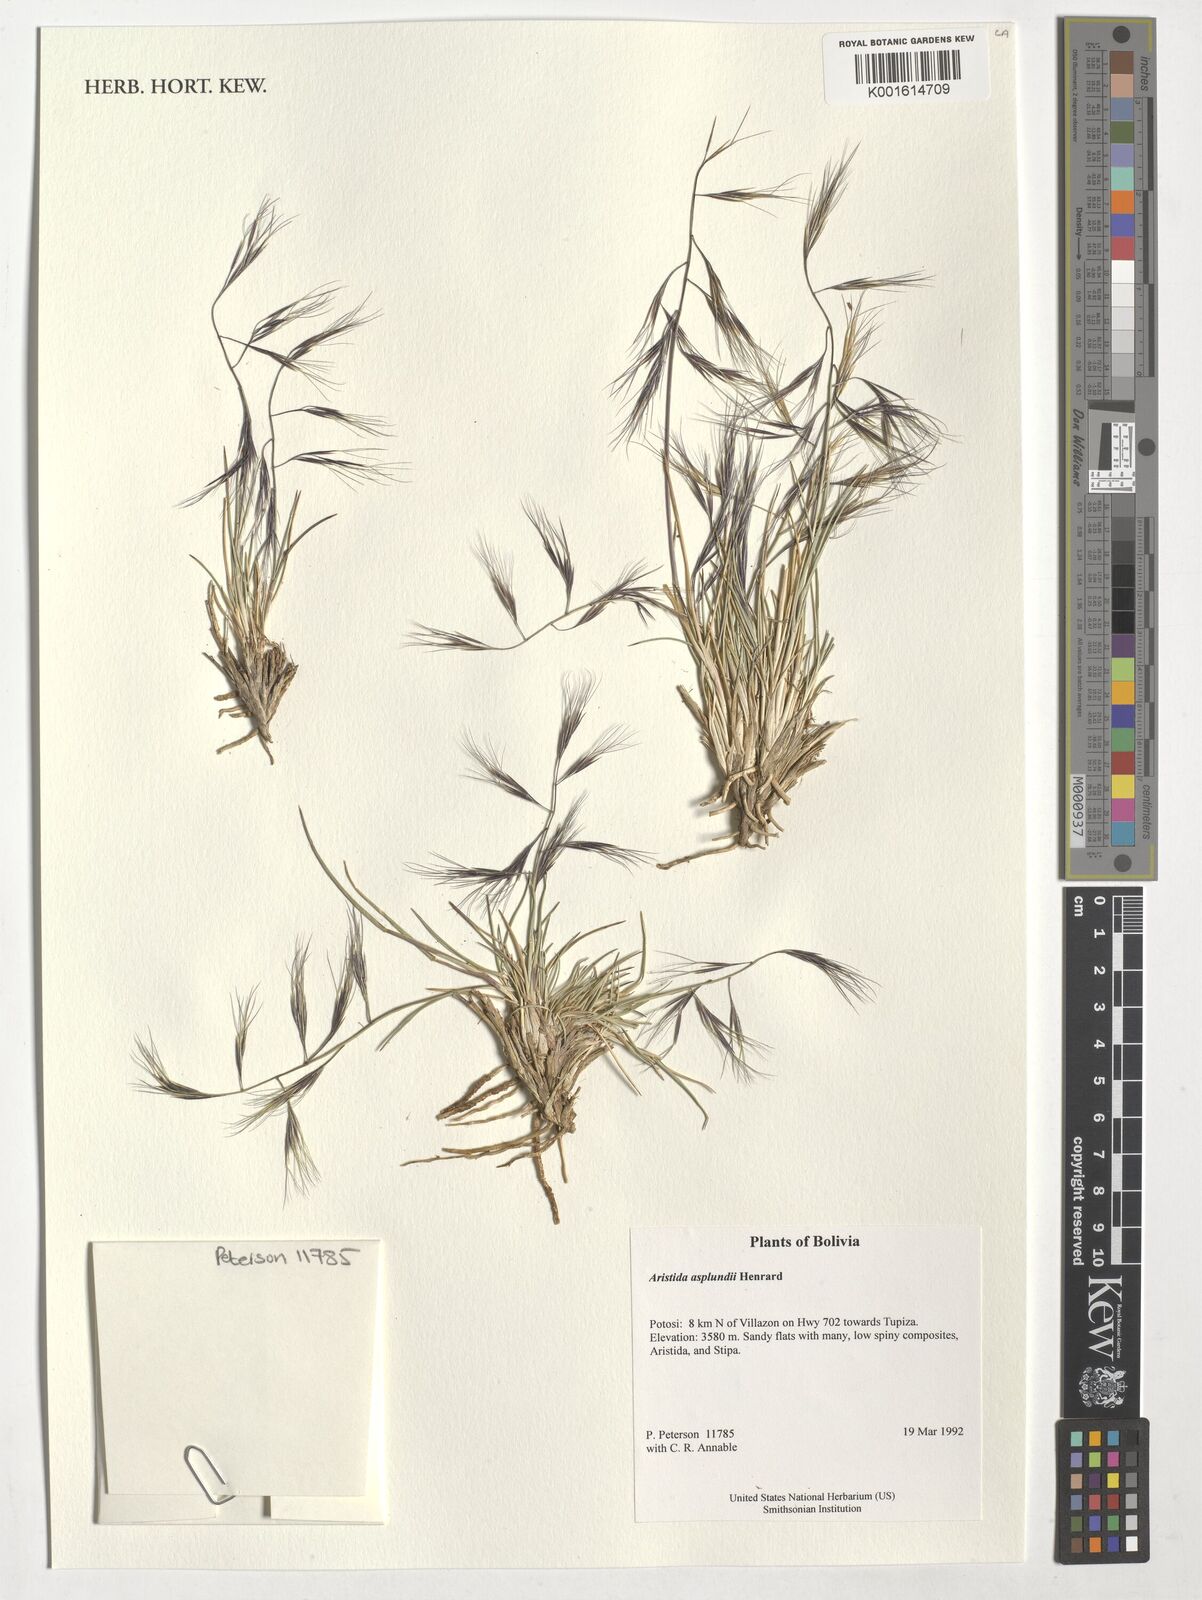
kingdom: Plantae
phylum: Tracheophyta
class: Liliopsida
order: Poales
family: Poaceae
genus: Aristida
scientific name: Aristida asplundii
